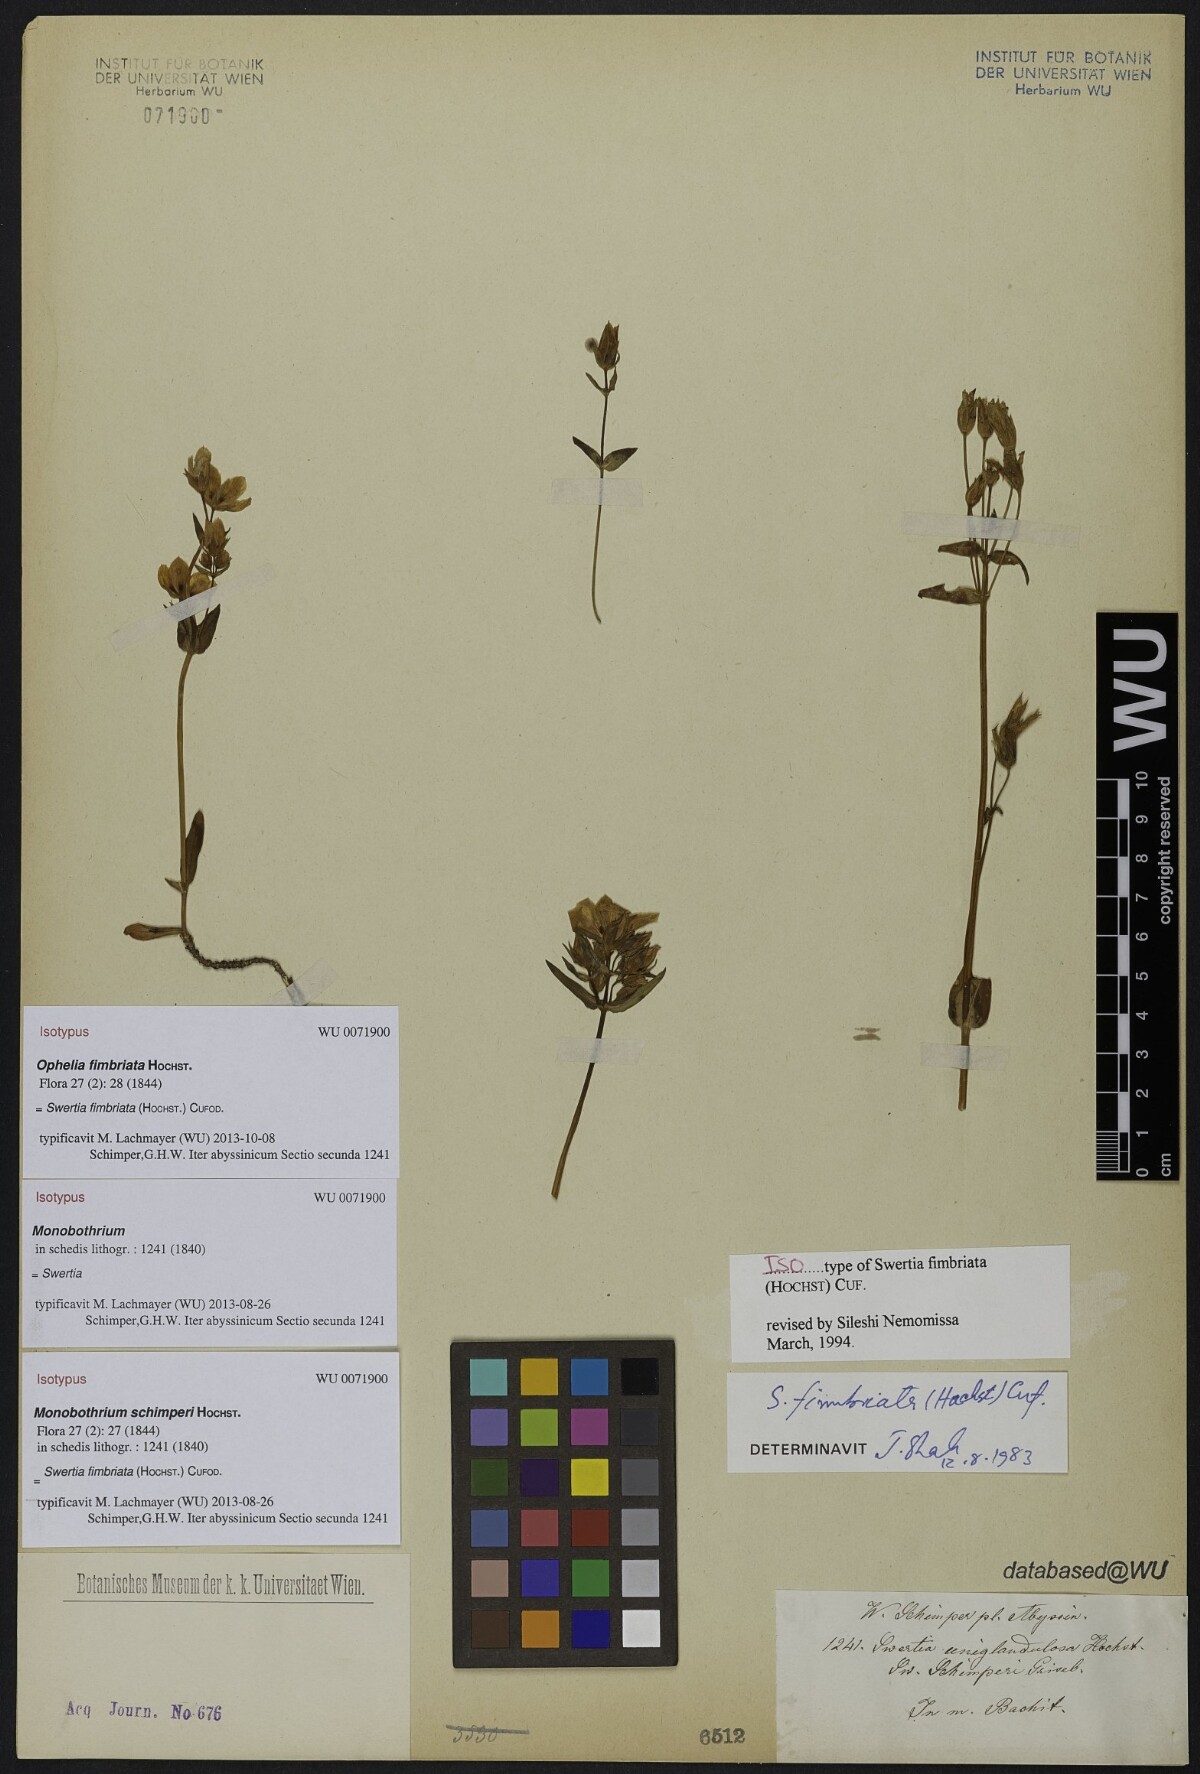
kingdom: Plantae
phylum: Tracheophyta
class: Magnoliopsida
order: Gentianales
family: Gentianaceae
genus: Swertia
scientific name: Swertia schimperi
